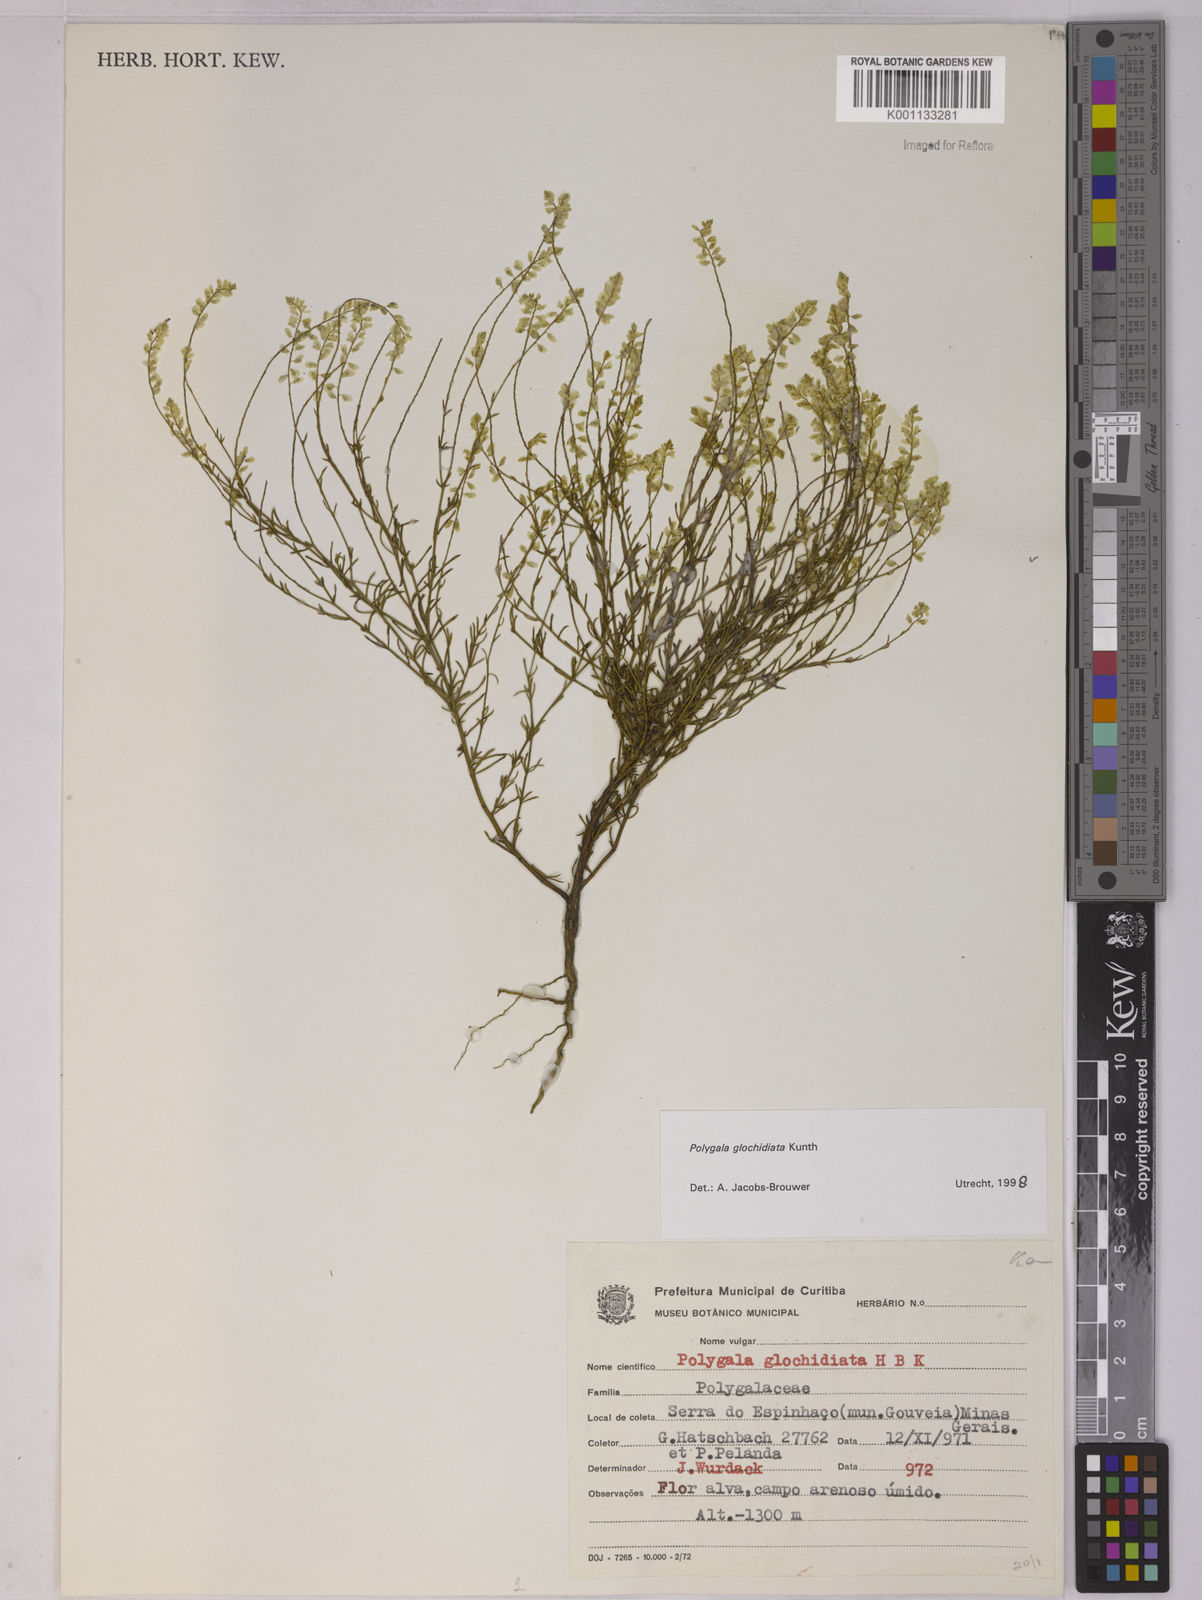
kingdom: Plantae
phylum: Tracheophyta
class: Magnoliopsida
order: Fabales
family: Polygalaceae
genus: Polygala
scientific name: Polygala glochidiata
